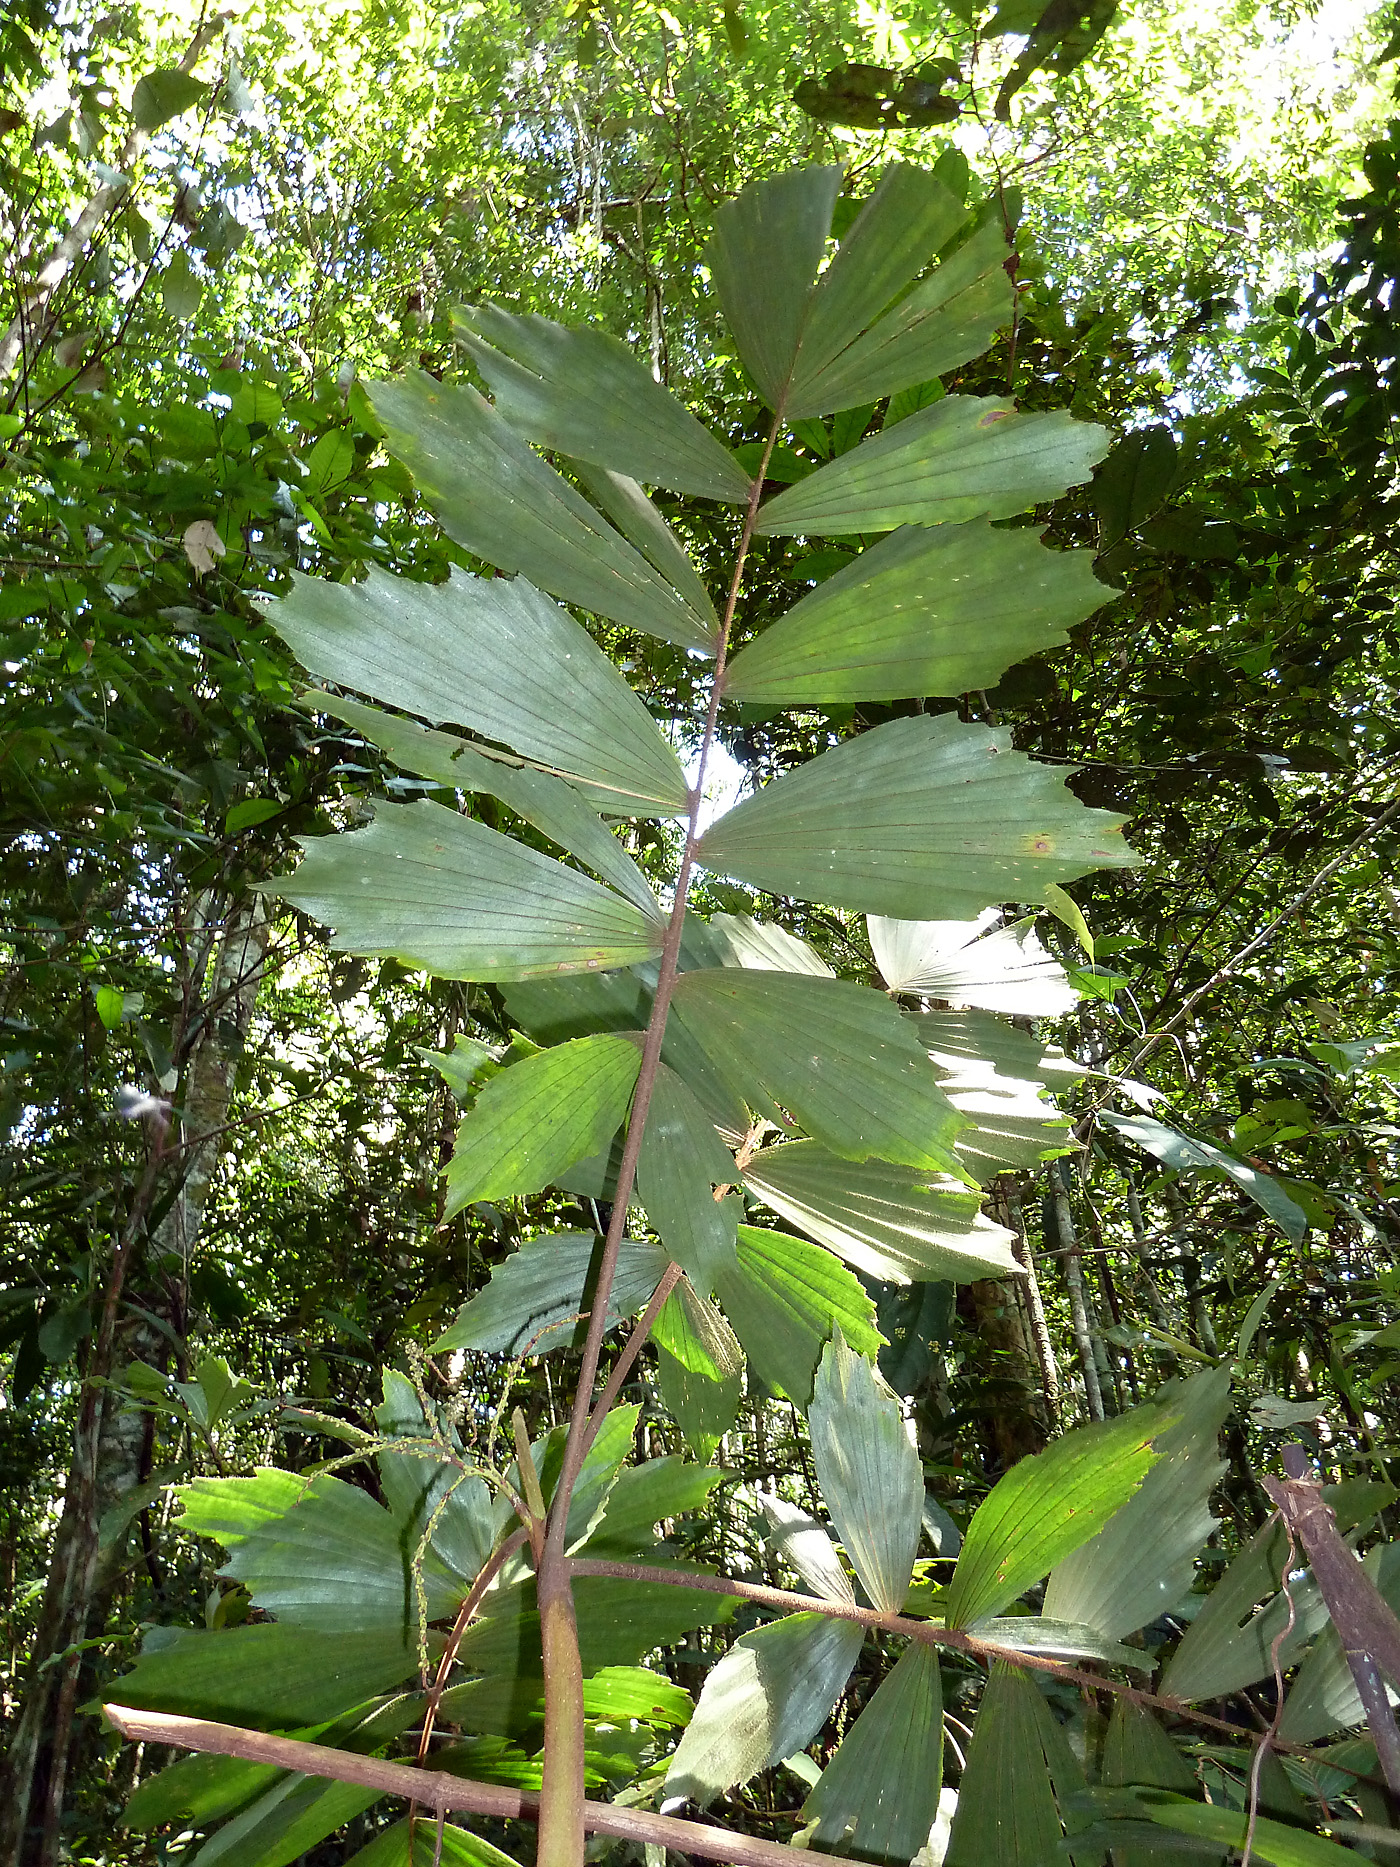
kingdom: Plantae
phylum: Tracheophyta
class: Liliopsida
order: Arecales
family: Arecaceae
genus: Iriartella
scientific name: Iriartella stenocarpa
